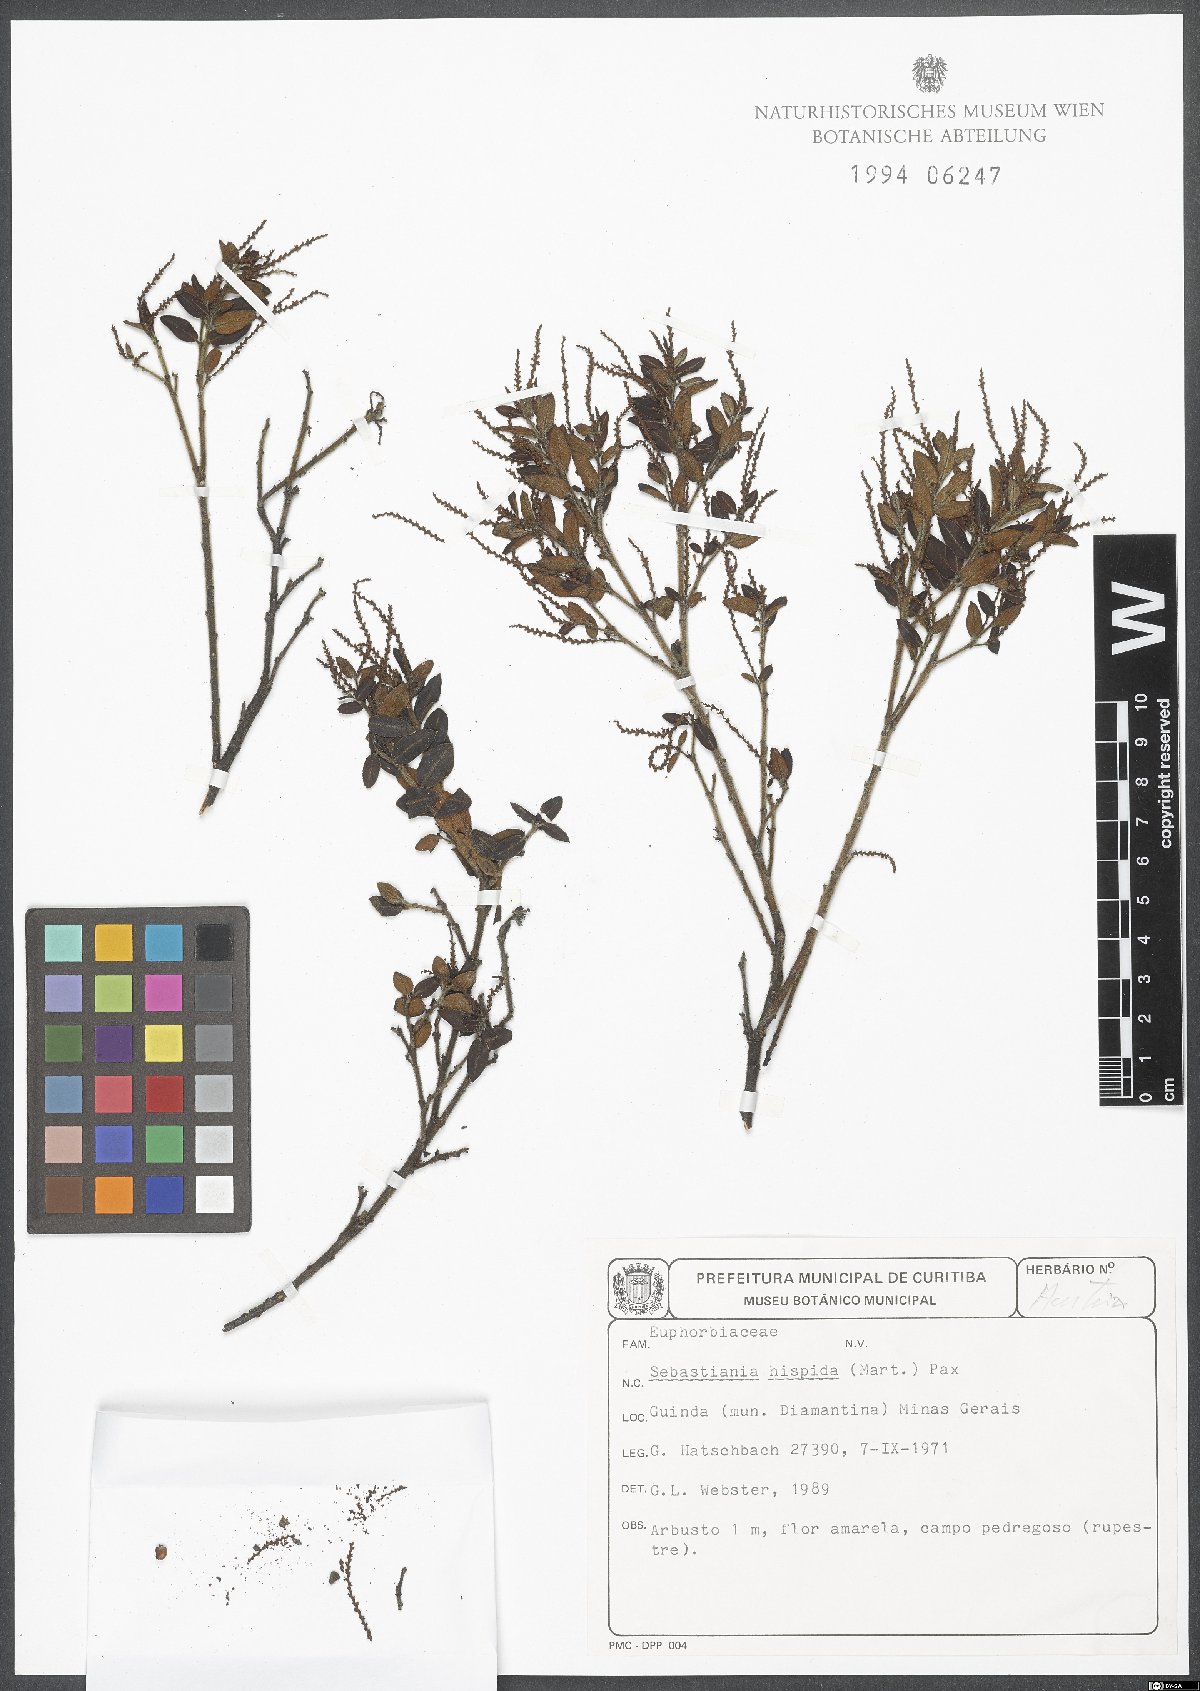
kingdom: Plantae
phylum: Tracheophyta
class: Magnoliopsida
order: Malpighiales
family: Euphorbiaceae
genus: Microstachys
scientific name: Microstachys hispida
